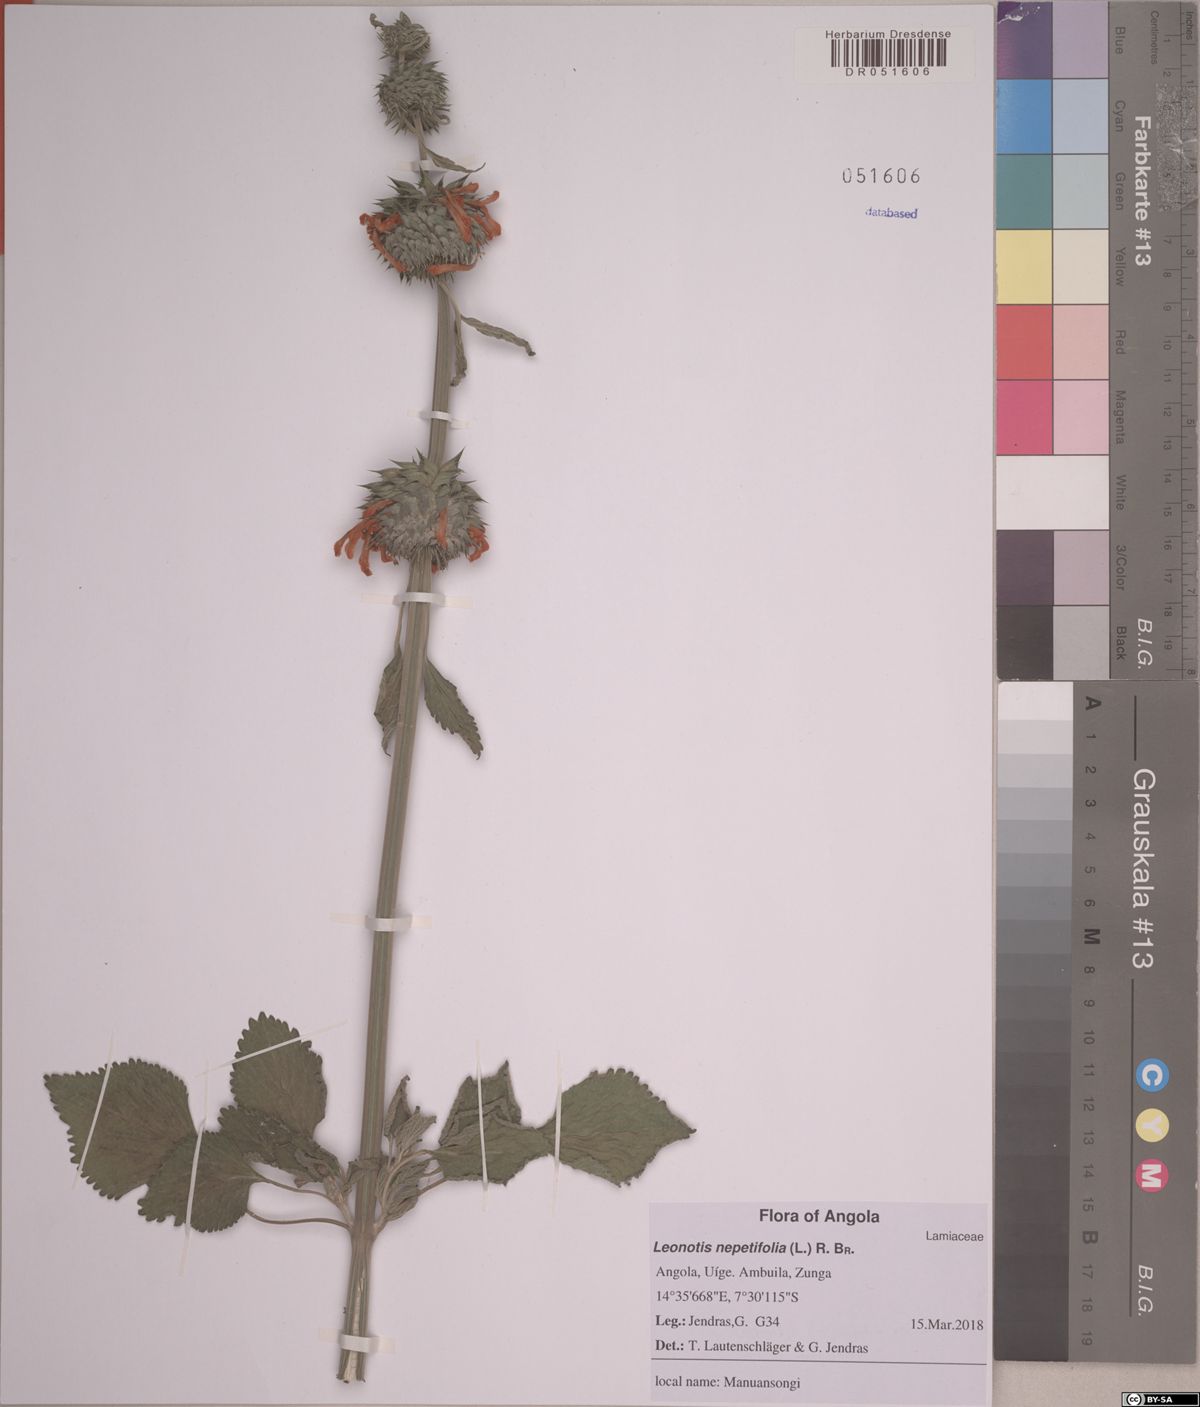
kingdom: Plantae
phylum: Tracheophyta
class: Magnoliopsida
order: Lamiales
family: Lamiaceae
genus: Leonotis
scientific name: Leonotis nepetifolia
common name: Christmas candlestick
